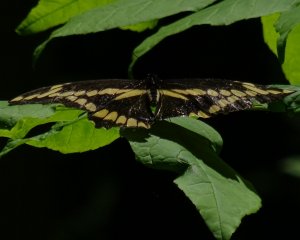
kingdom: Animalia
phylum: Arthropoda
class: Insecta
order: Lepidoptera
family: Papilionidae
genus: Papilio
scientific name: Papilio cresphontes
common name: Eastern Giant Swallowtail
